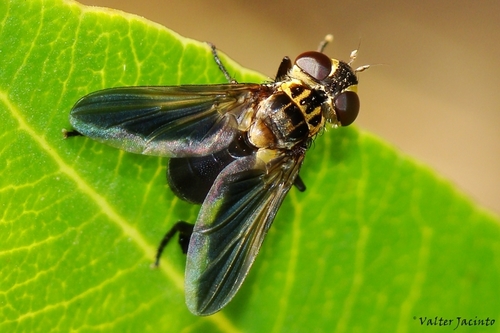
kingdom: Animalia
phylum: Arthropoda
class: Insecta
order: Diptera
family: Tachinidae
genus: Trichopoda
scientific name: Trichopoda pennipes
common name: Tachinid fly
